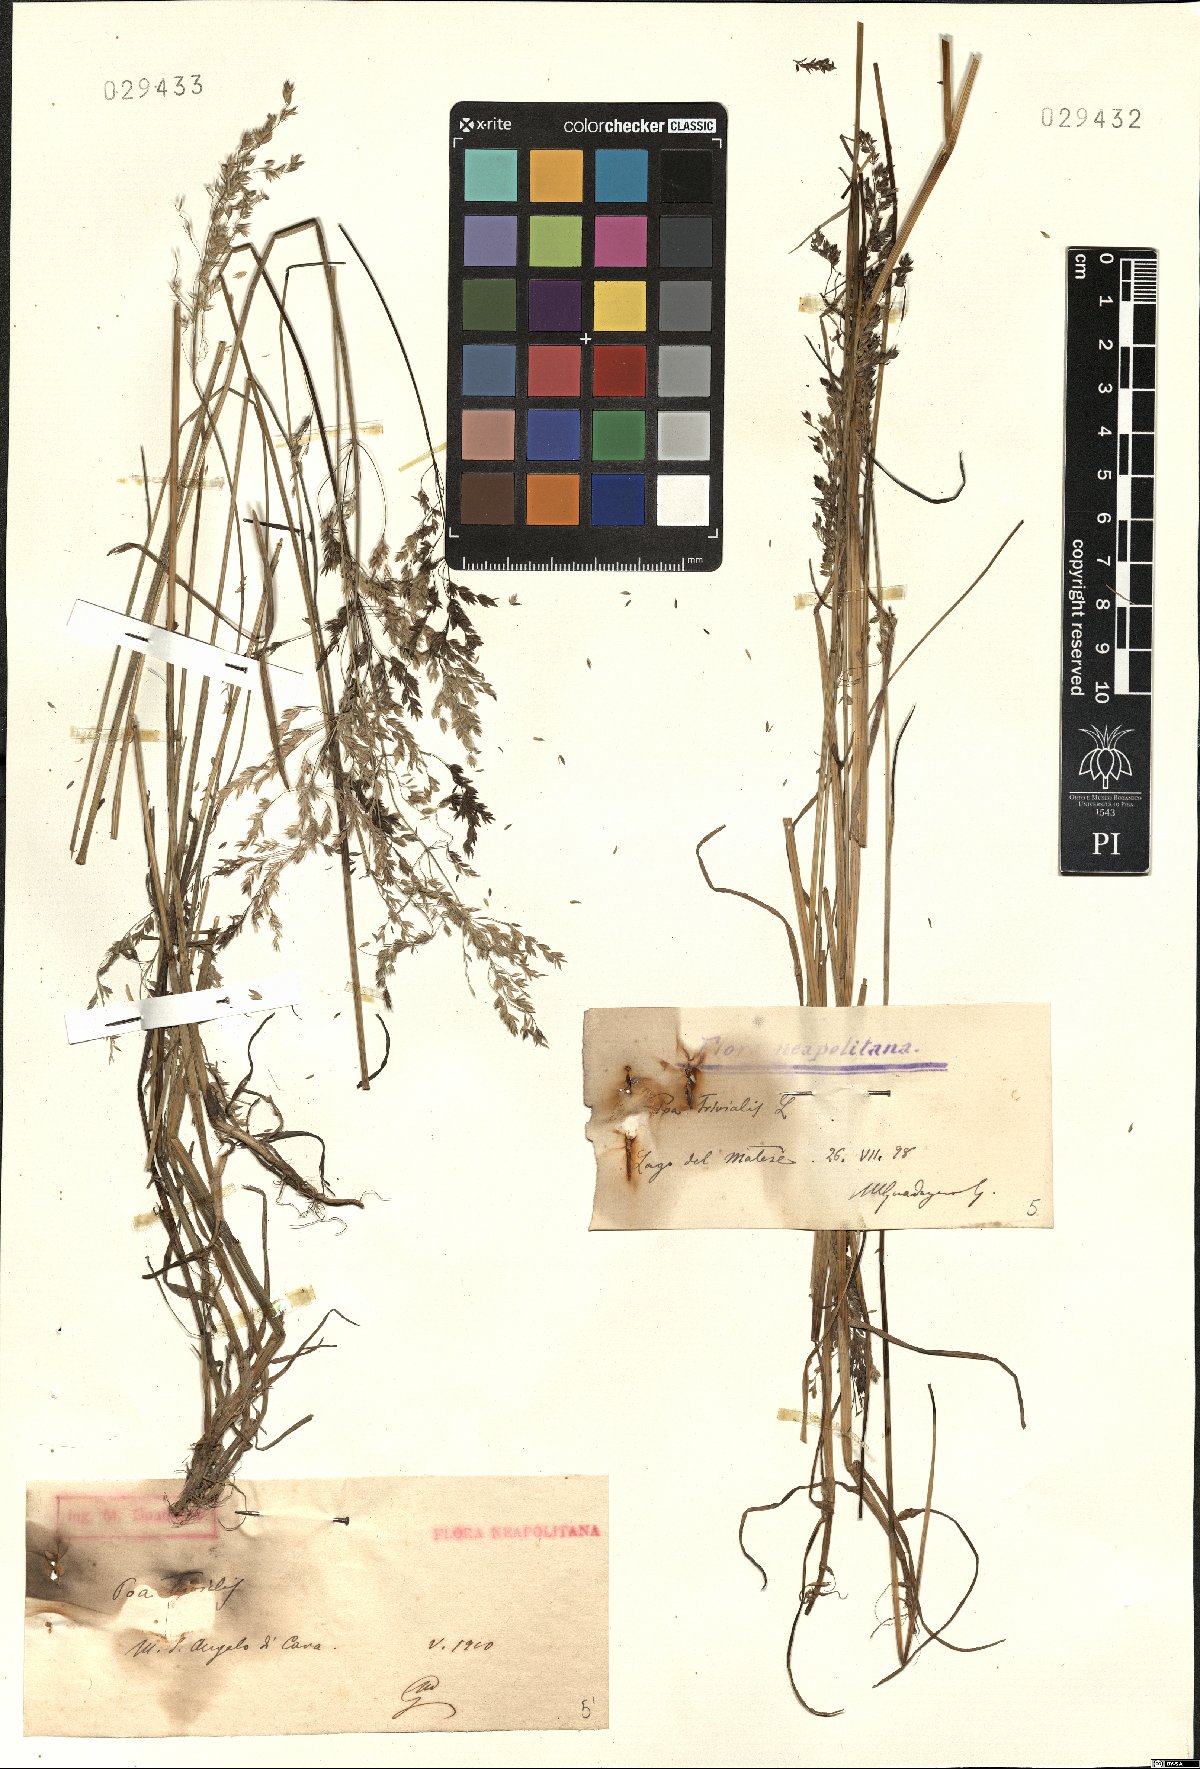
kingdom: Plantae
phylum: Tracheophyta
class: Liliopsida
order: Poales
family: Poaceae
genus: Poa
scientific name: Poa trivialis
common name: Rough bluegrass
